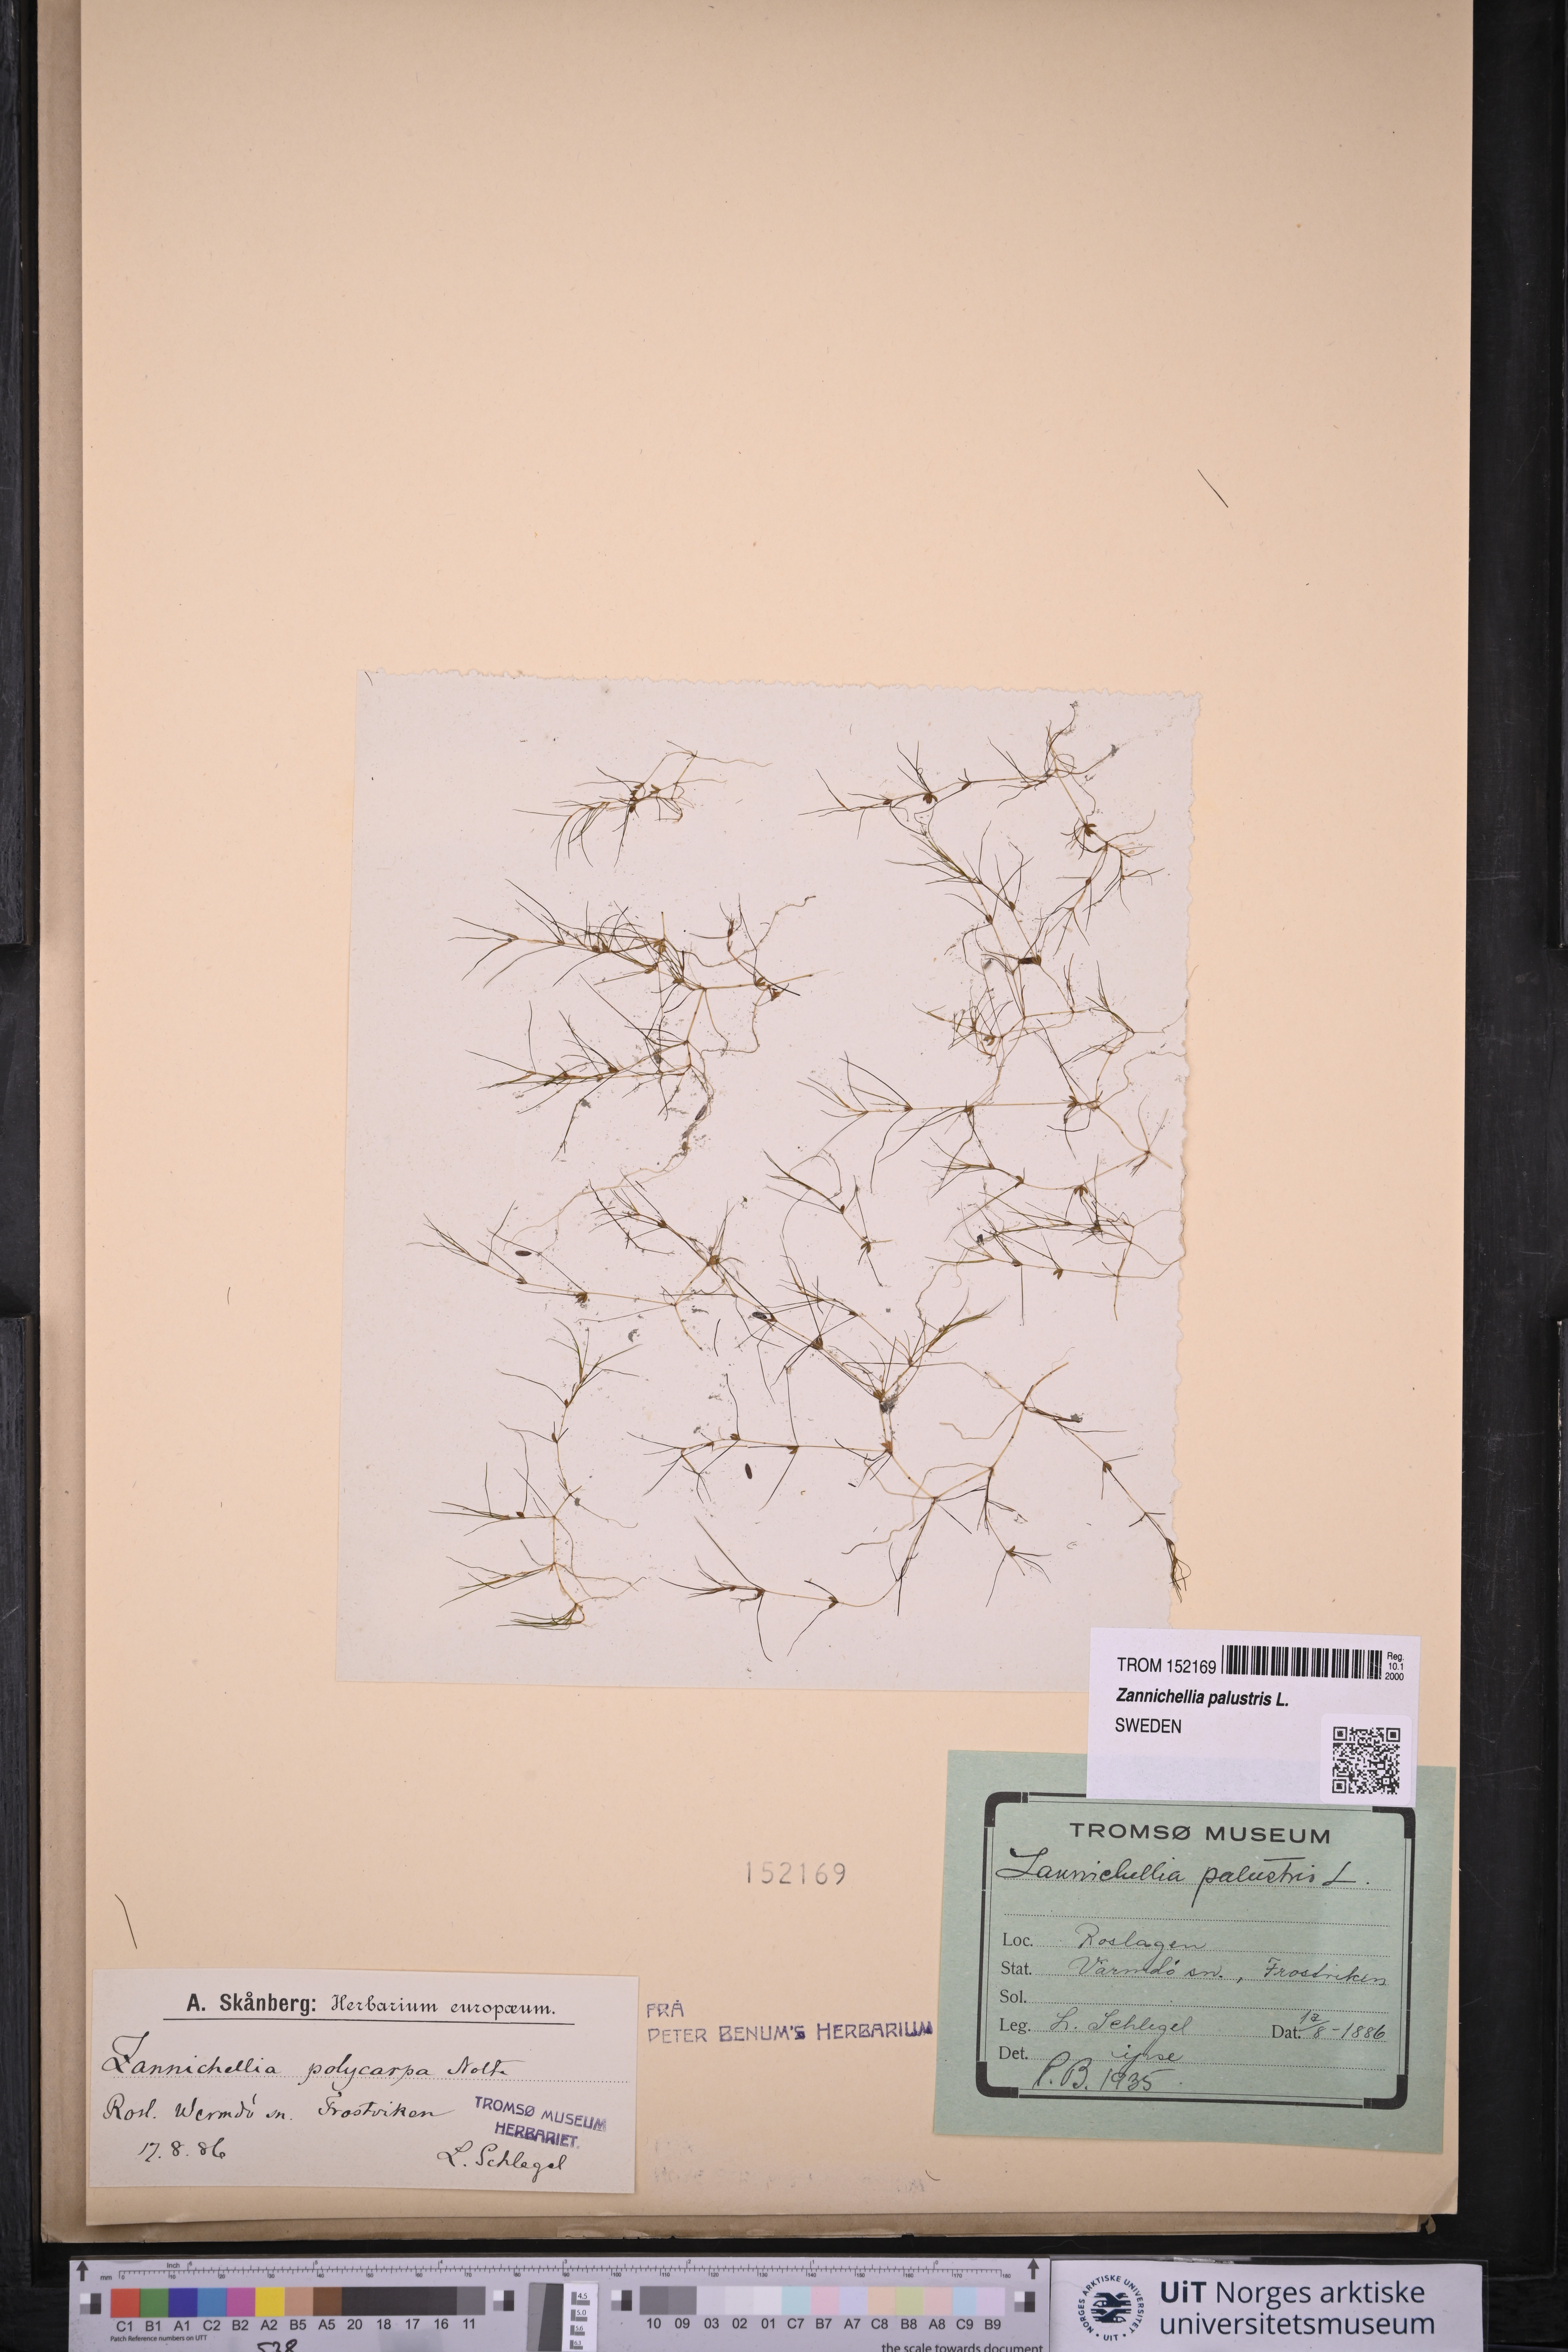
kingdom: Plantae
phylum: Tracheophyta
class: Liliopsida
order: Alismatales
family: Potamogetonaceae
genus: Zannichellia
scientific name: Zannichellia palustris
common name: Horned pondweed
